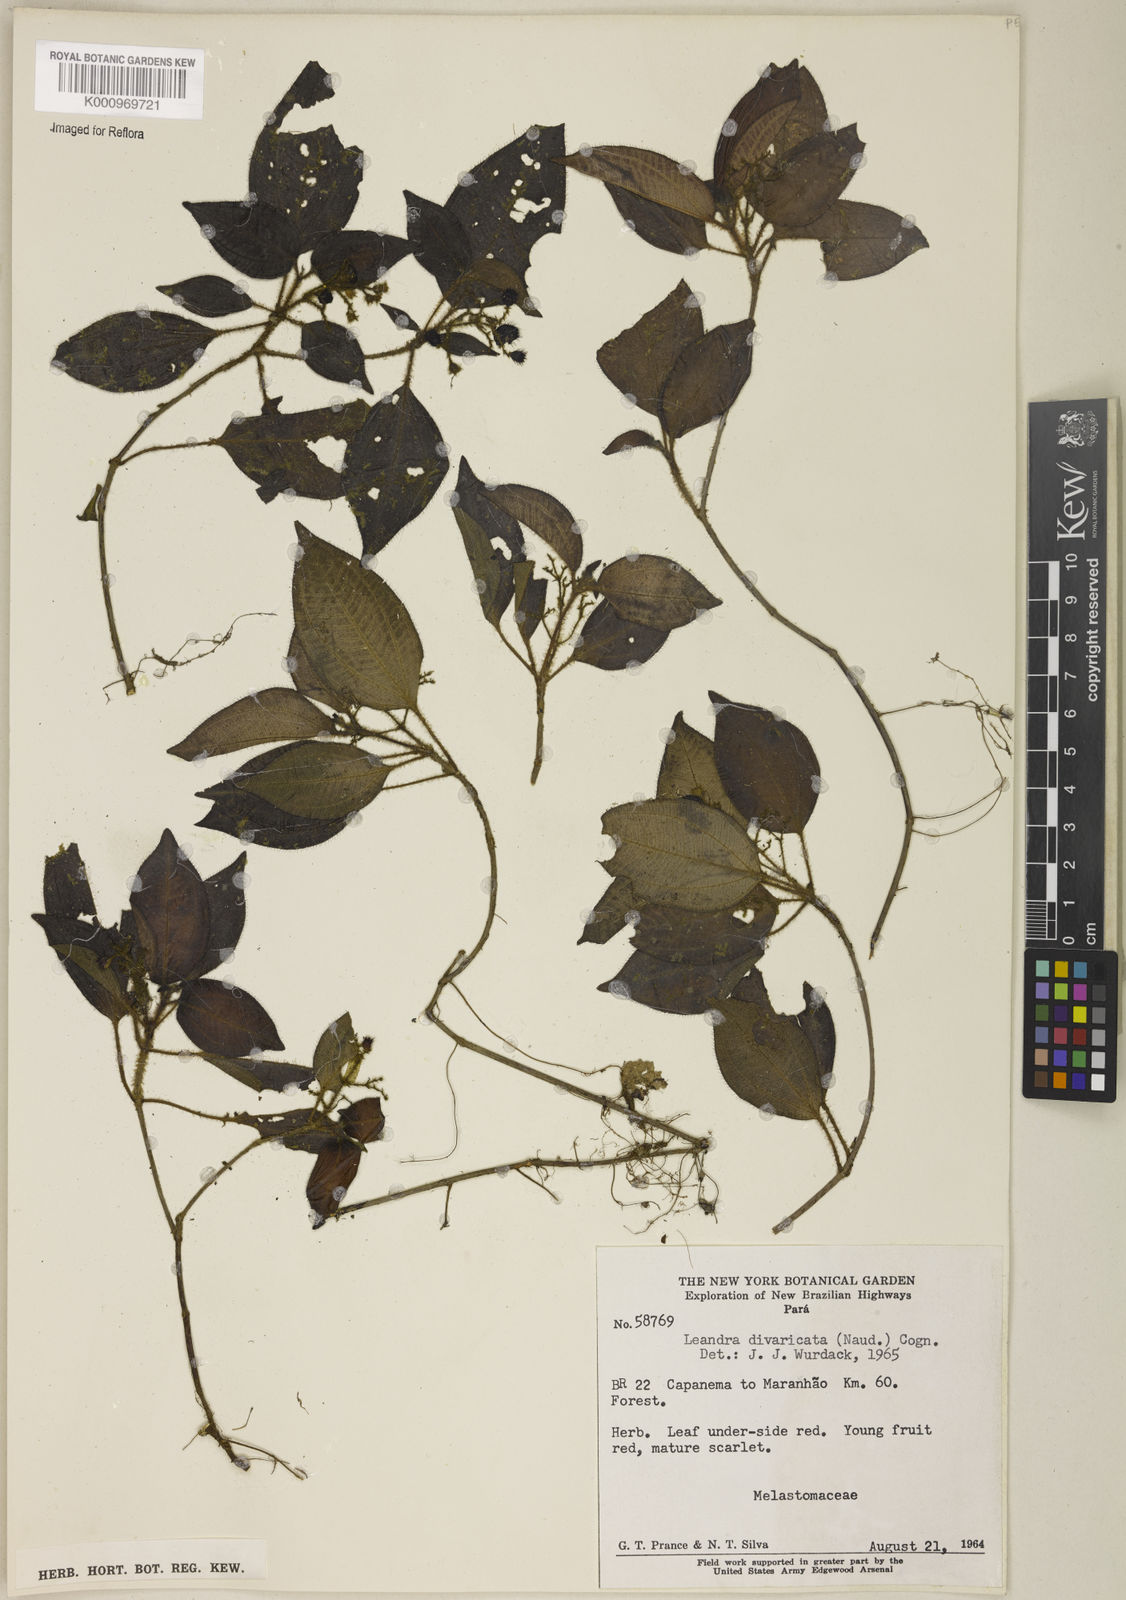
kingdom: Plantae
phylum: Tracheophyta
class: Magnoliopsida
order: Myrtales
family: Melastomataceae
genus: Miconia
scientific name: Miconia secundivaricata
